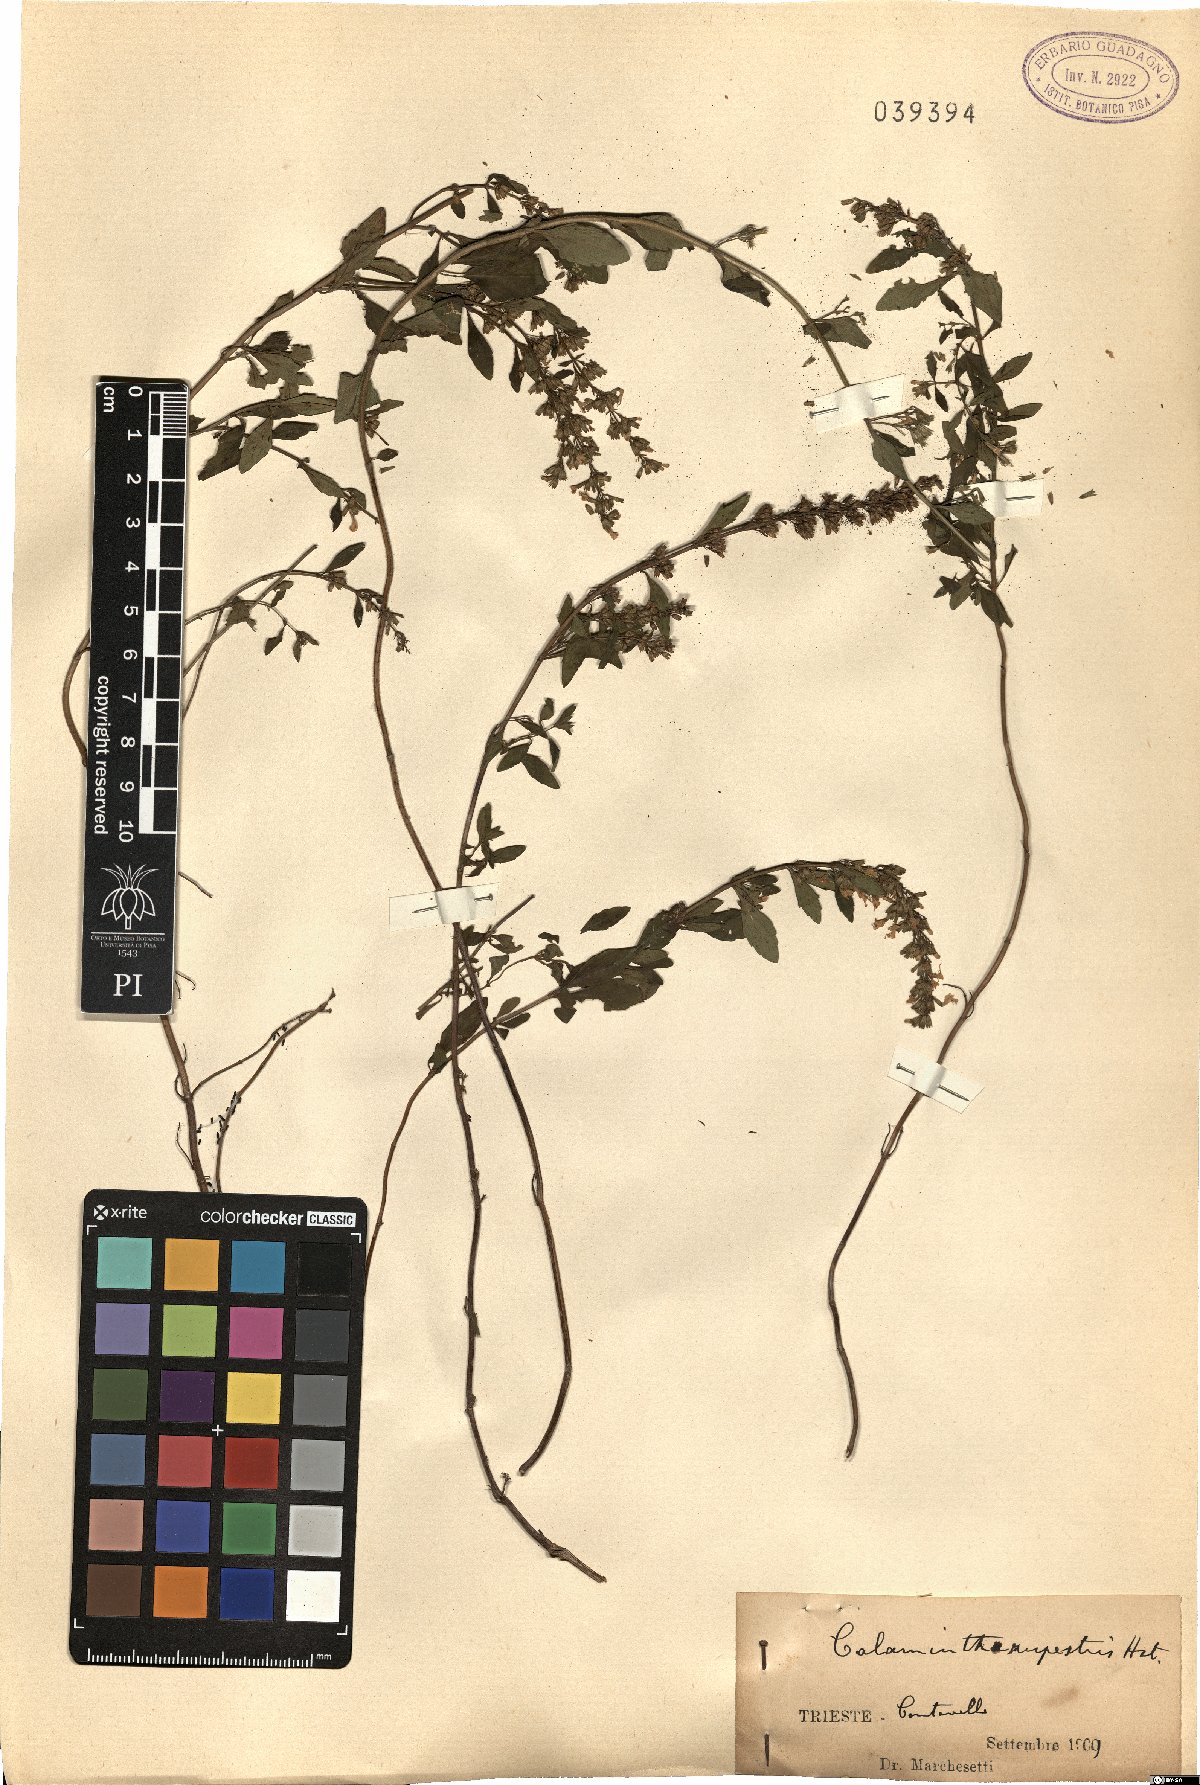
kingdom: Plantae
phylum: Tracheophyta
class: Magnoliopsida
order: Lamiales
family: Lamiaceae
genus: Clinopodium
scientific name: Clinopodium album
